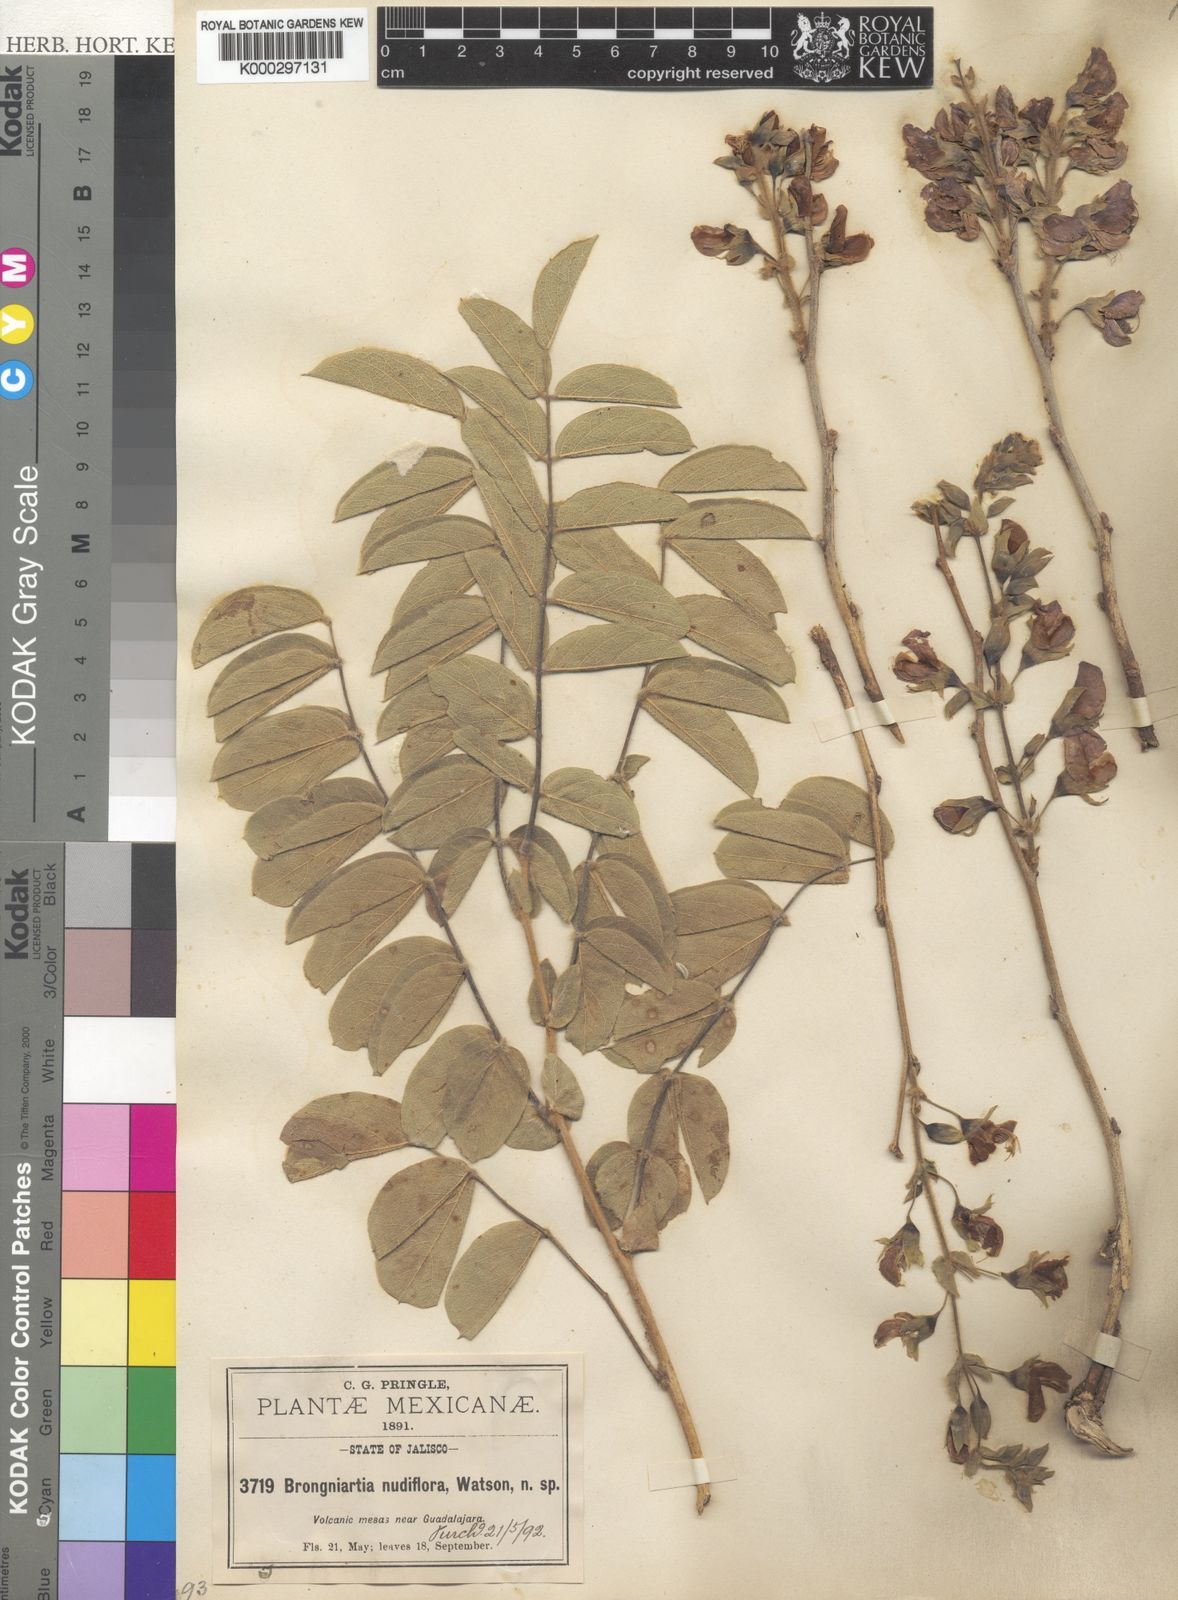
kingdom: Plantae
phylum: Tracheophyta
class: Magnoliopsida
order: Fabales
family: Fabaceae
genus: Brongniartia
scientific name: Brongniartia nudiflora
